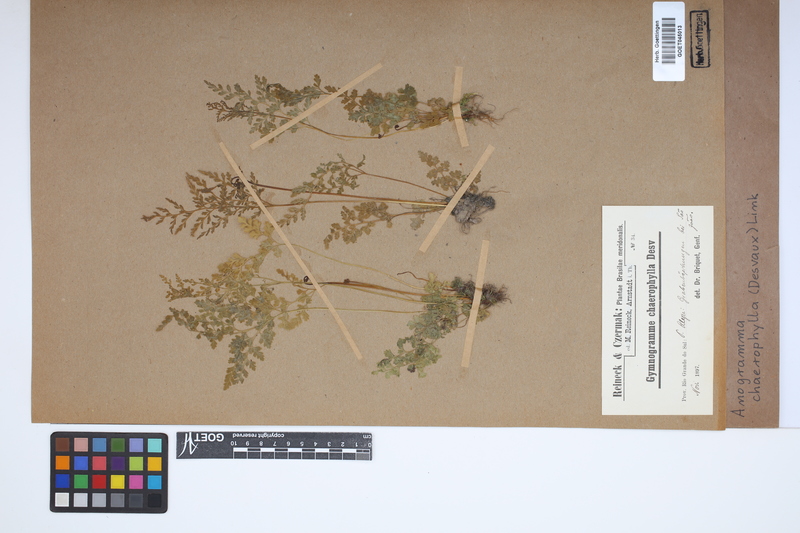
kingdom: Plantae
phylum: Tracheophyta
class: Polypodiopsida
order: Polypodiales
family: Pteridaceae
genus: Gastoniella
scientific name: Gastoniella chaerophylla
